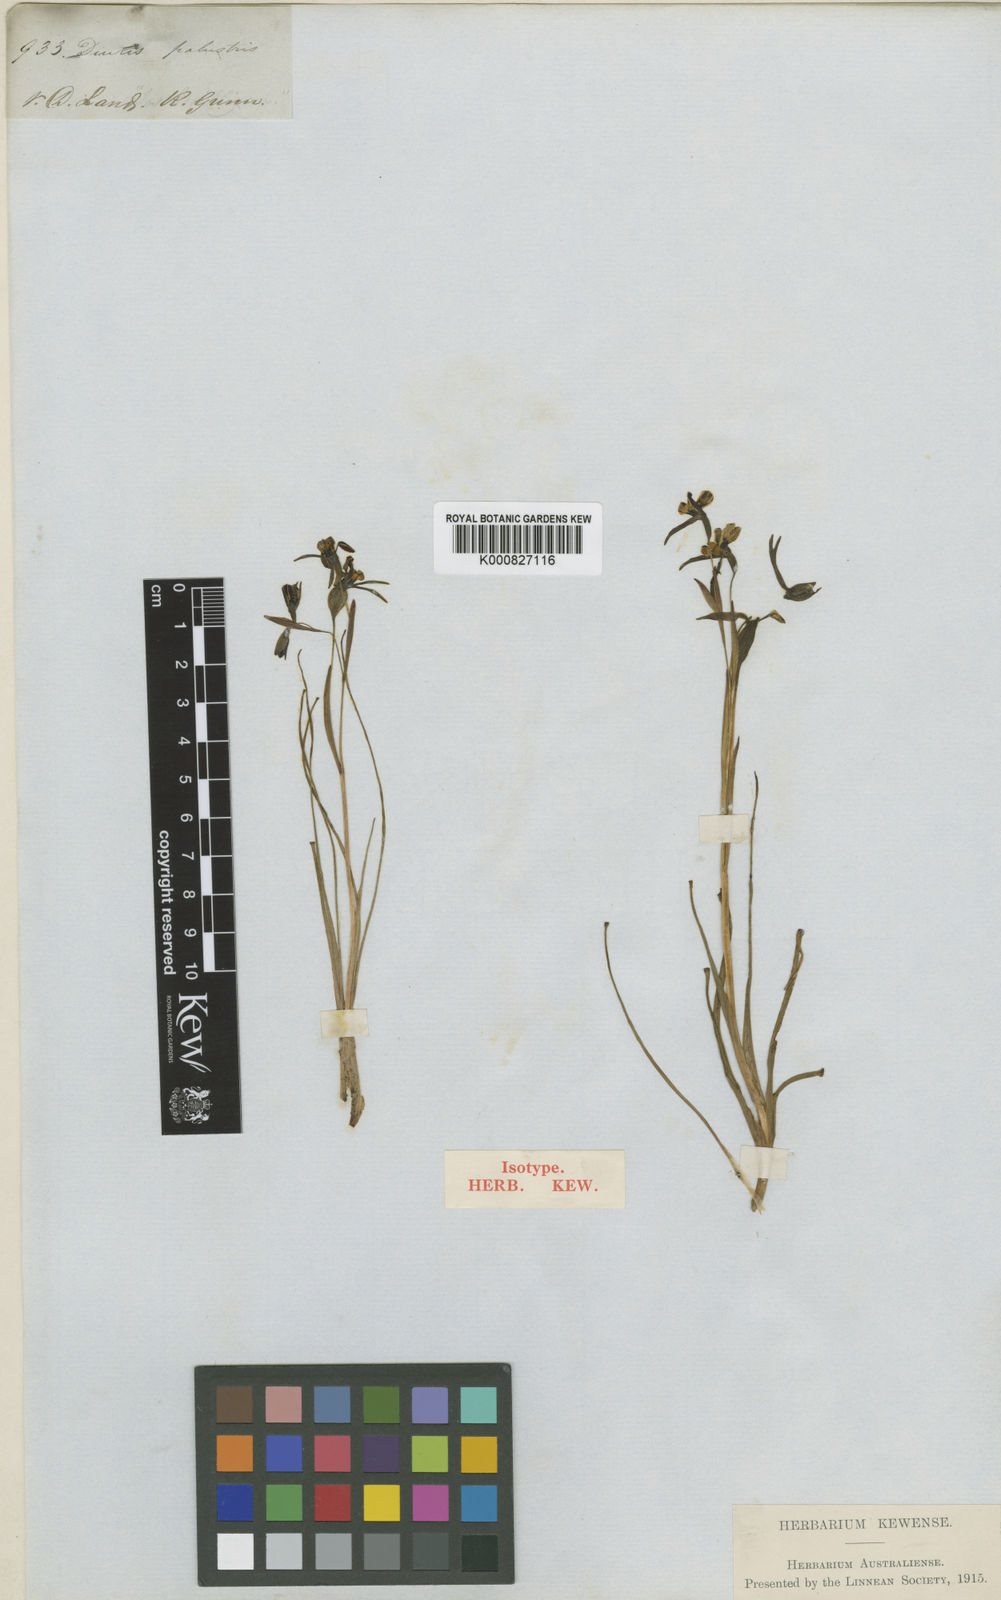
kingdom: Plantae
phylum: Tracheophyta
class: Liliopsida
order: Asparagales
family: Orchidaceae
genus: Diuris
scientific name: Diuris palustris
